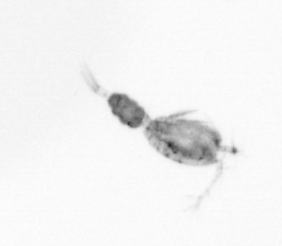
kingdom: Animalia
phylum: Arthropoda
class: Copepoda
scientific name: Copepoda
